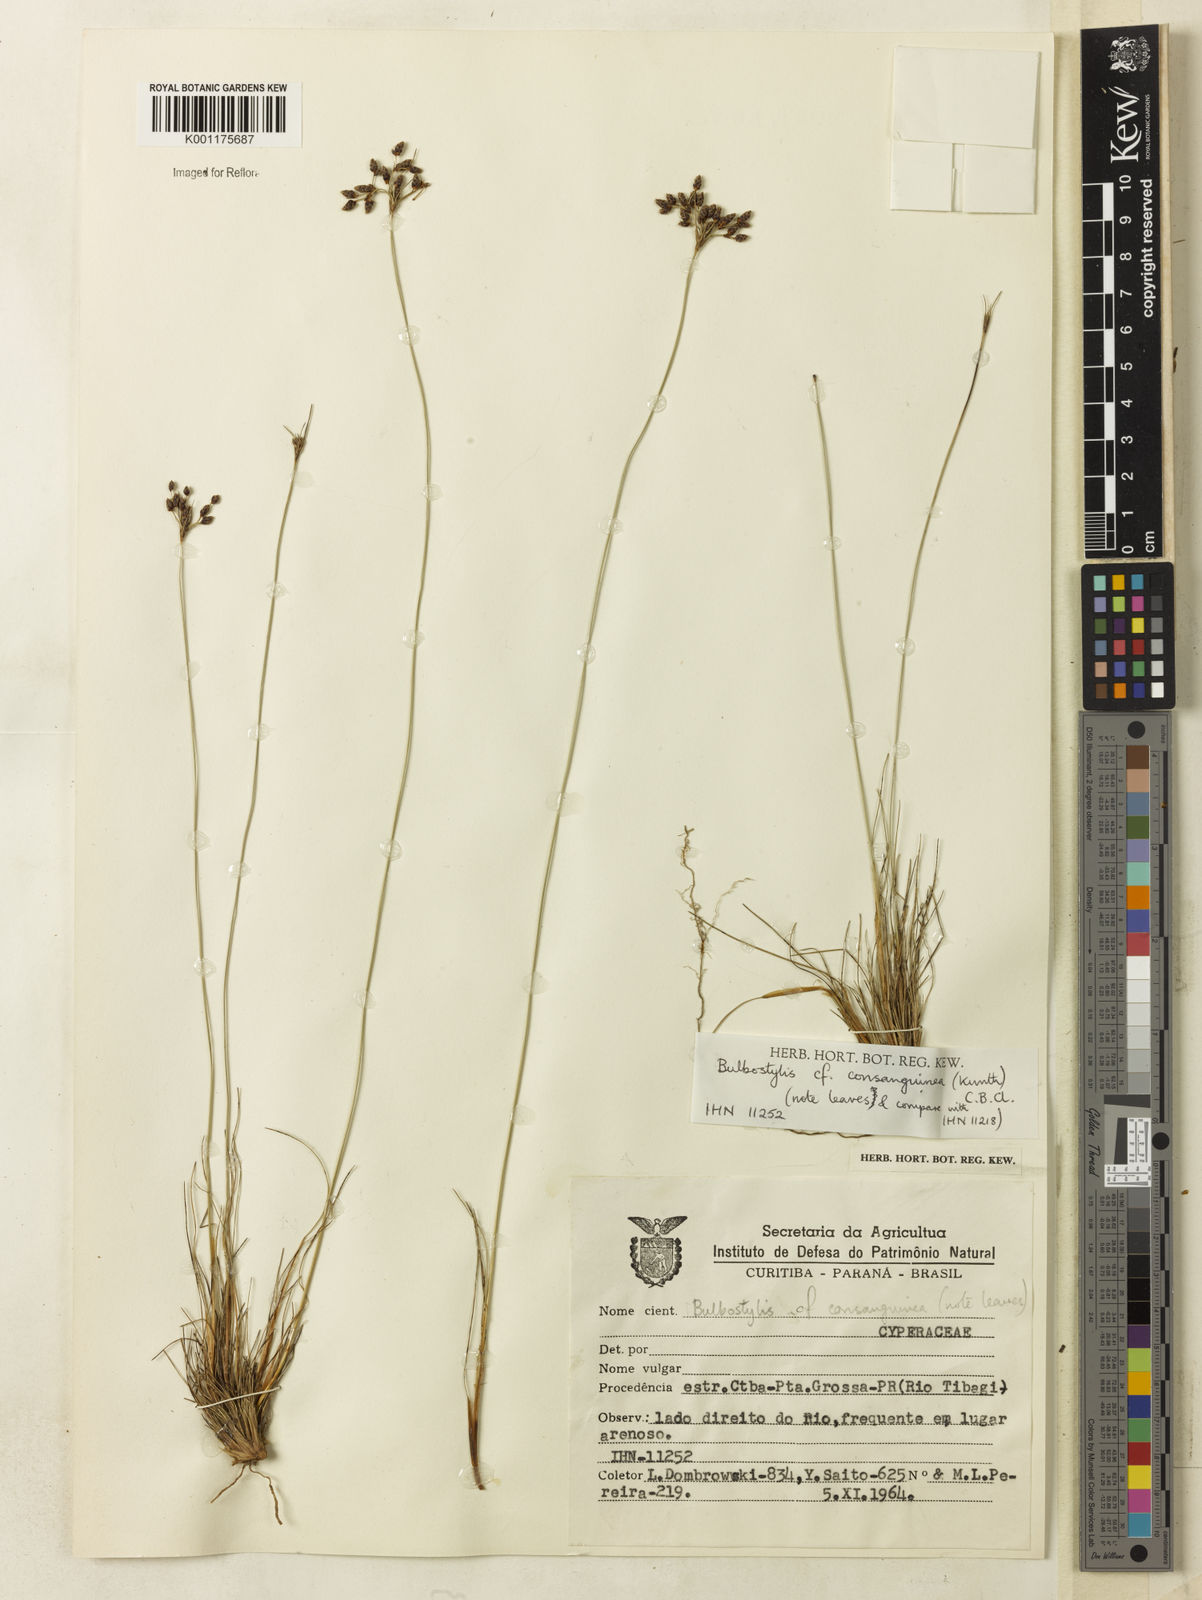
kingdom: Plantae
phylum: Tracheophyta
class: Liliopsida
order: Poales
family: Cyperaceae
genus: Bulbostylis
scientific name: Bulbostylis consanguinea
